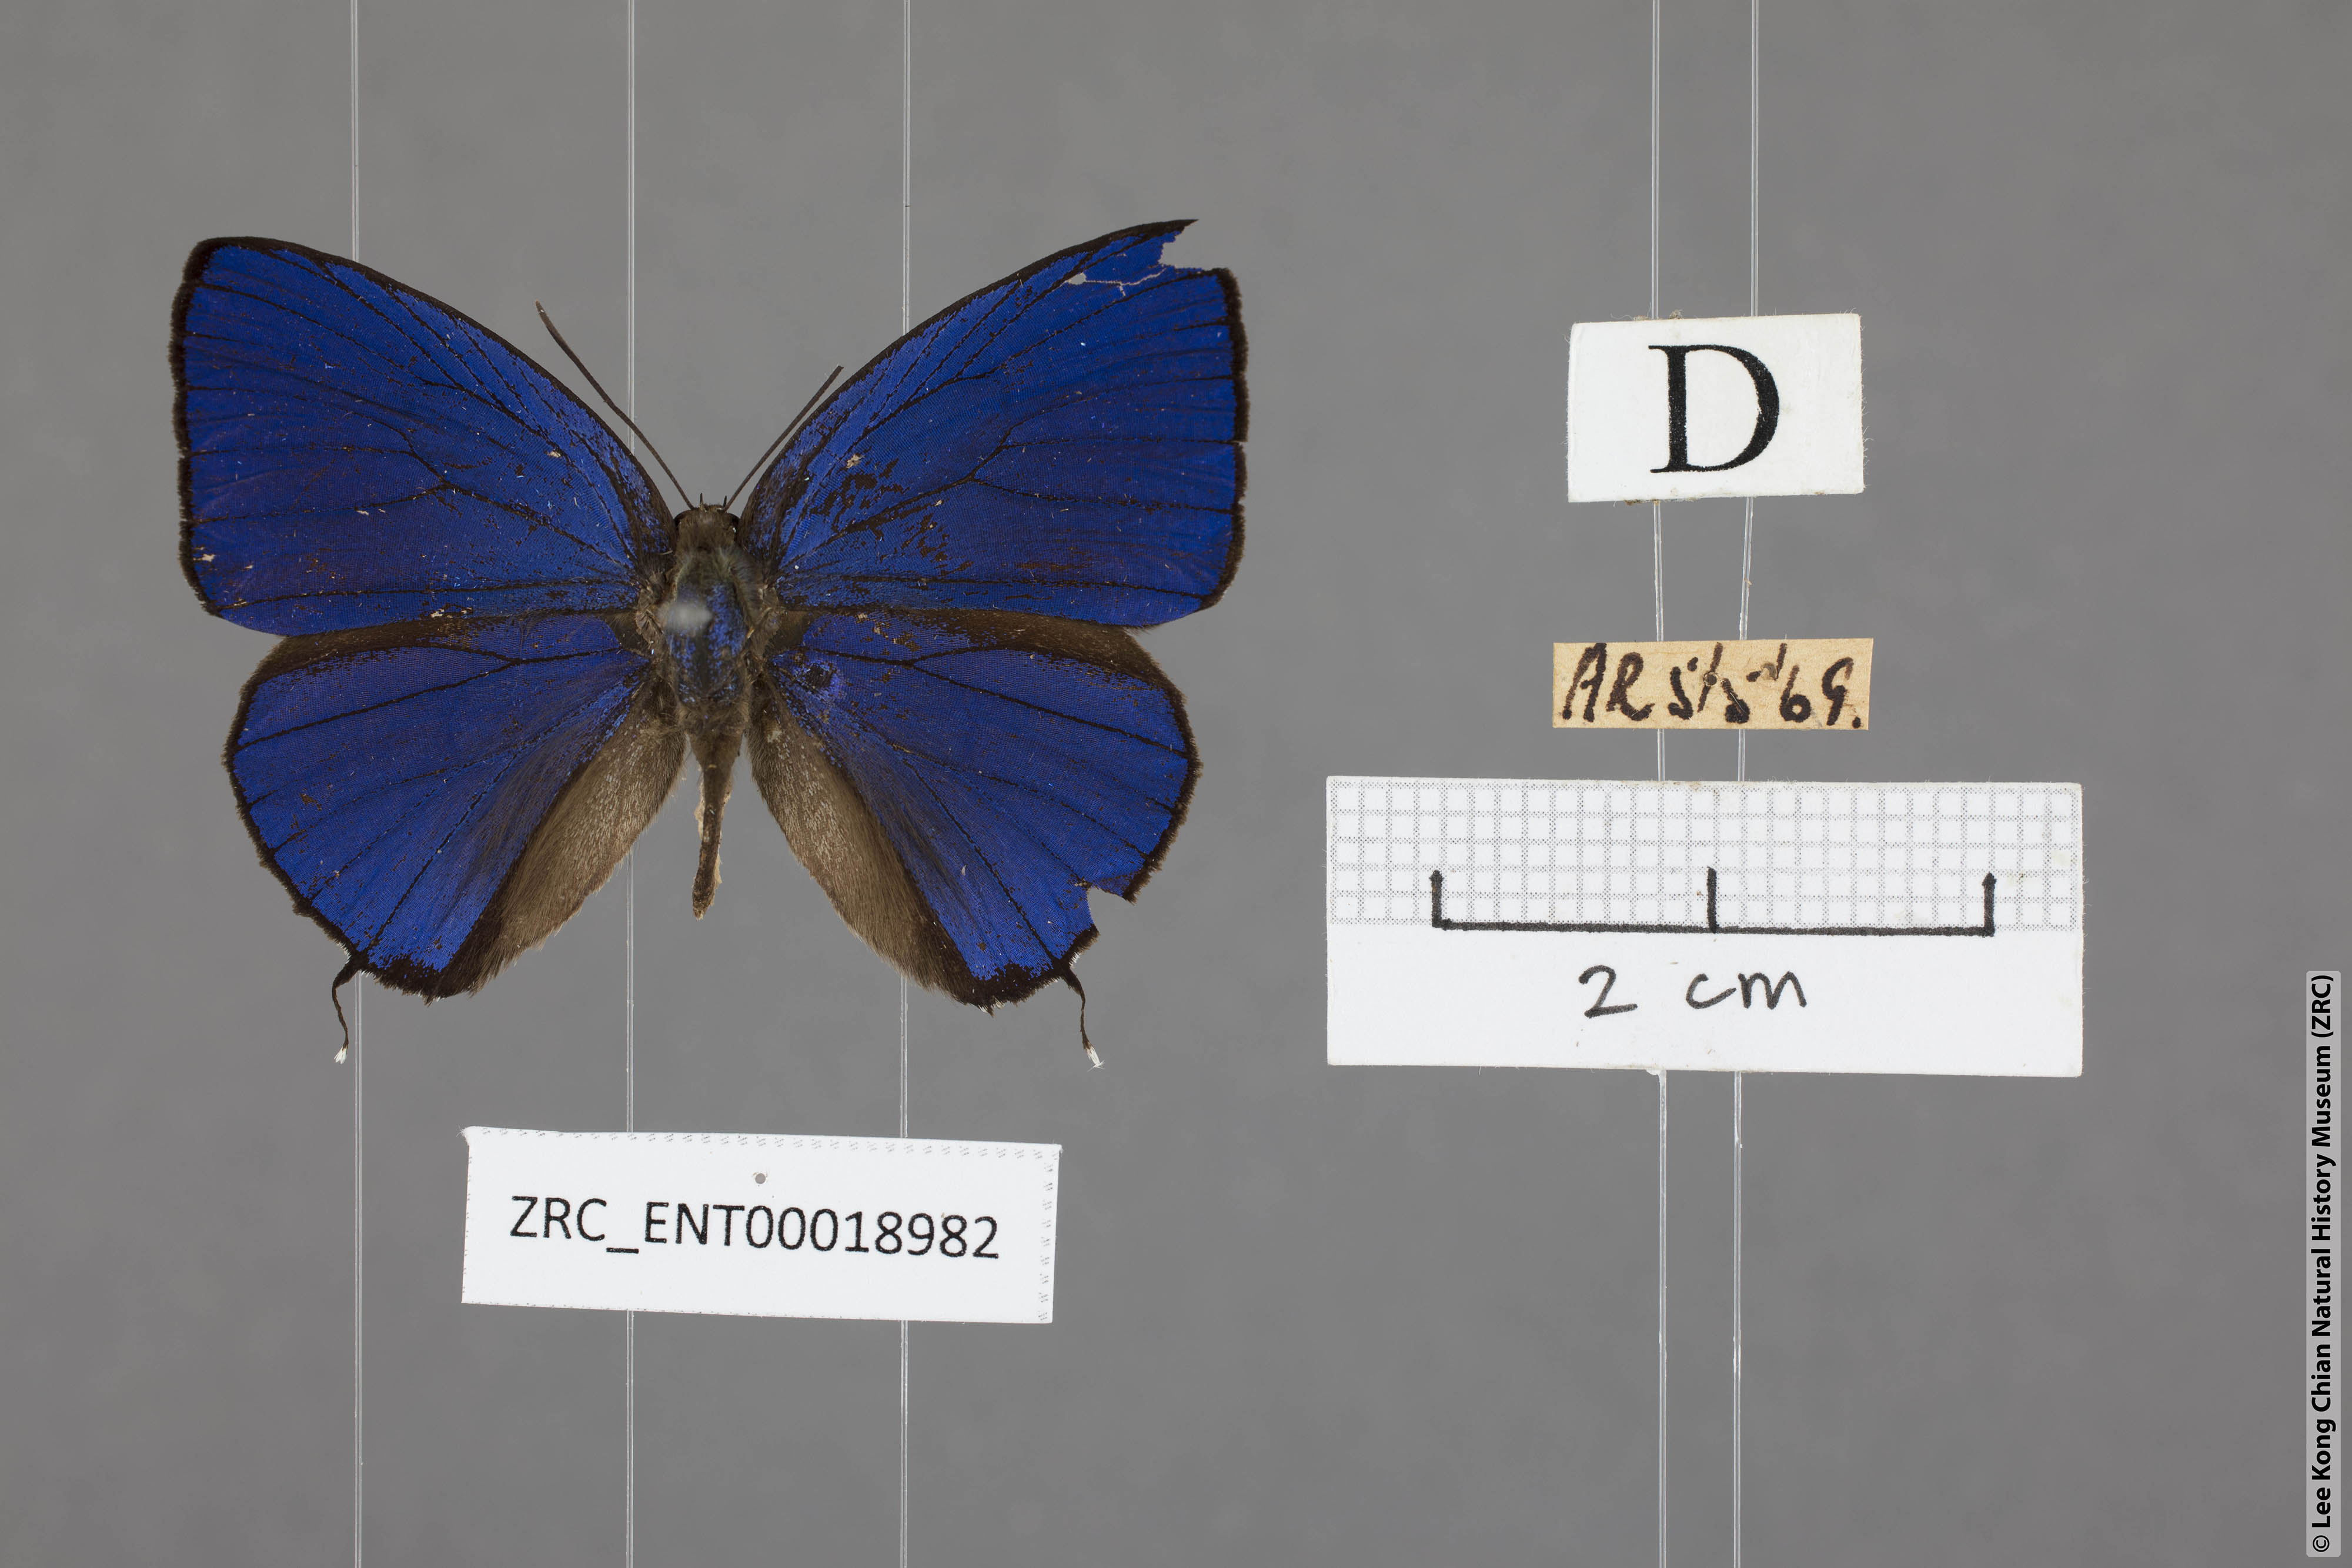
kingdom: Animalia
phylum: Arthropoda
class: Insecta
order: Lepidoptera
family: Lycaenidae
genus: Arhopala
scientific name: Arhopala ace
